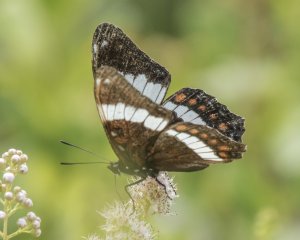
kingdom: Animalia
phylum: Arthropoda
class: Insecta
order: Lepidoptera
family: Nymphalidae
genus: Limenitis
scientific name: Limenitis arthemis
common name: Red-spotted Admiral
